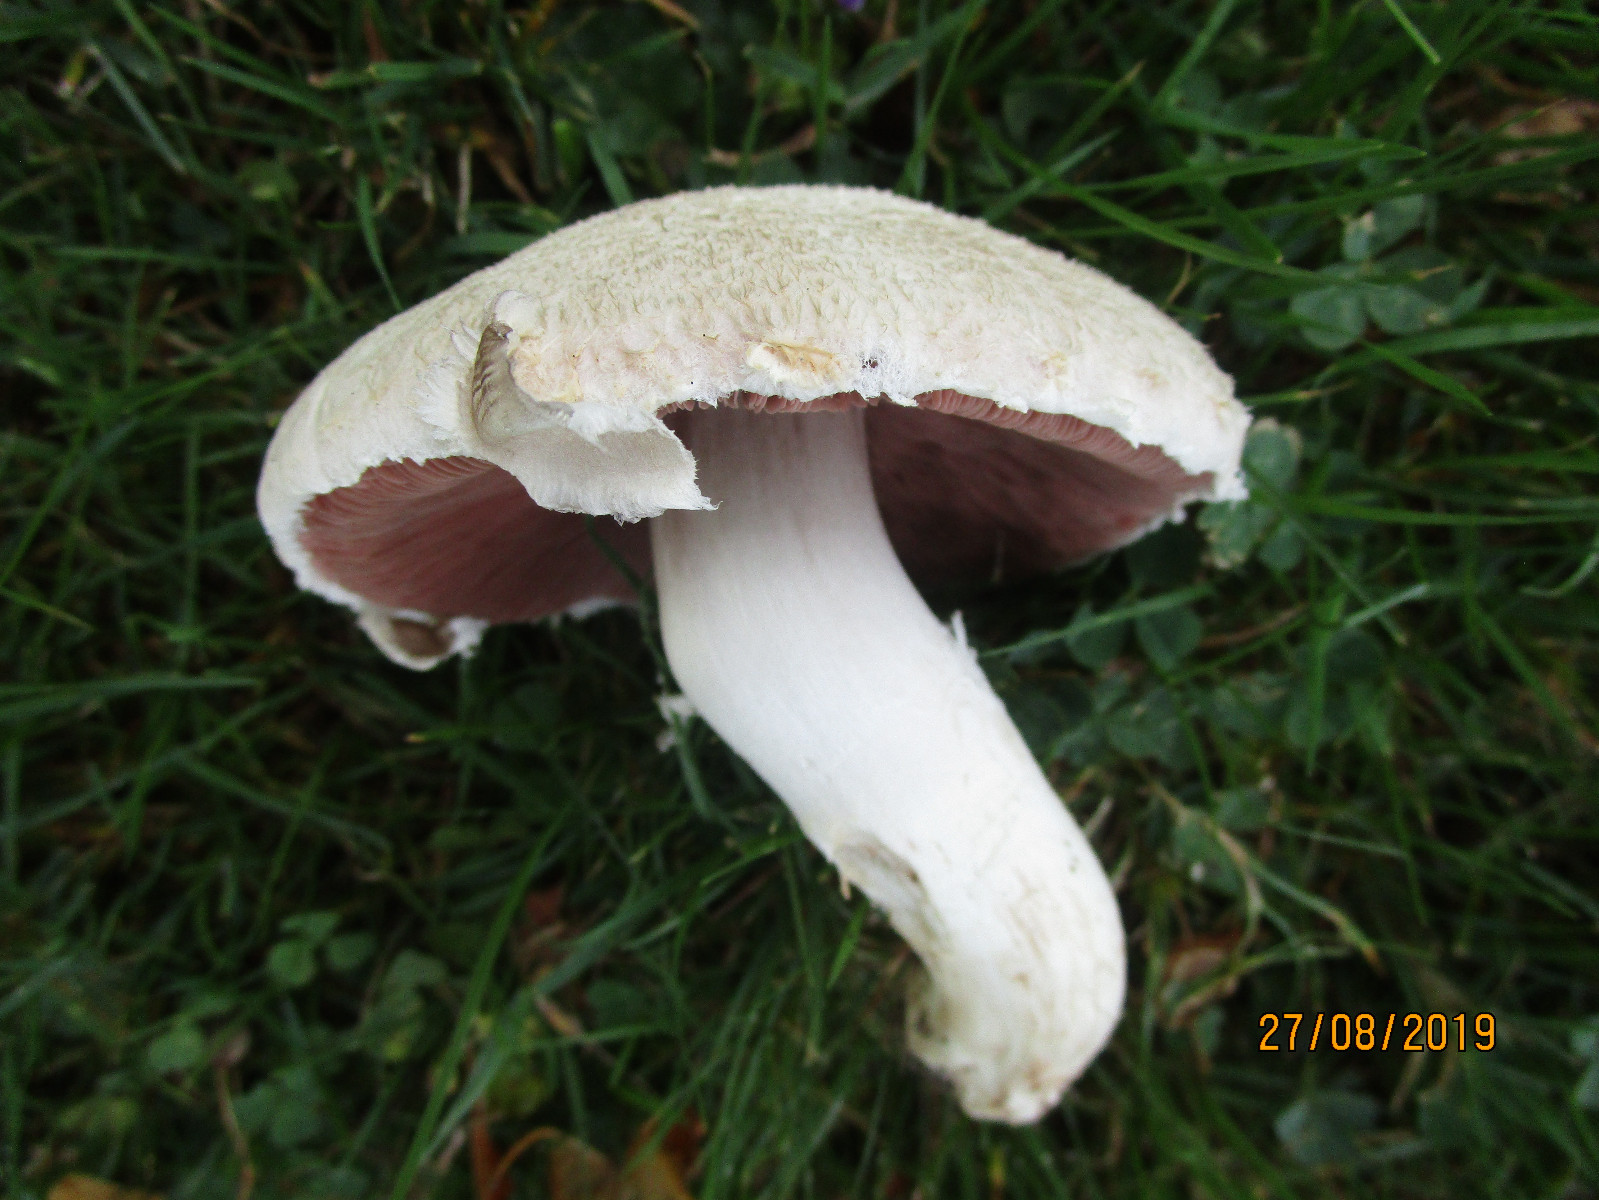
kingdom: Fungi
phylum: Basidiomycota
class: Agaricomycetes
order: Agaricales
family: Agaricaceae
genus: Agaricus
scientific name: Agaricus campestris
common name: mark-champignon
